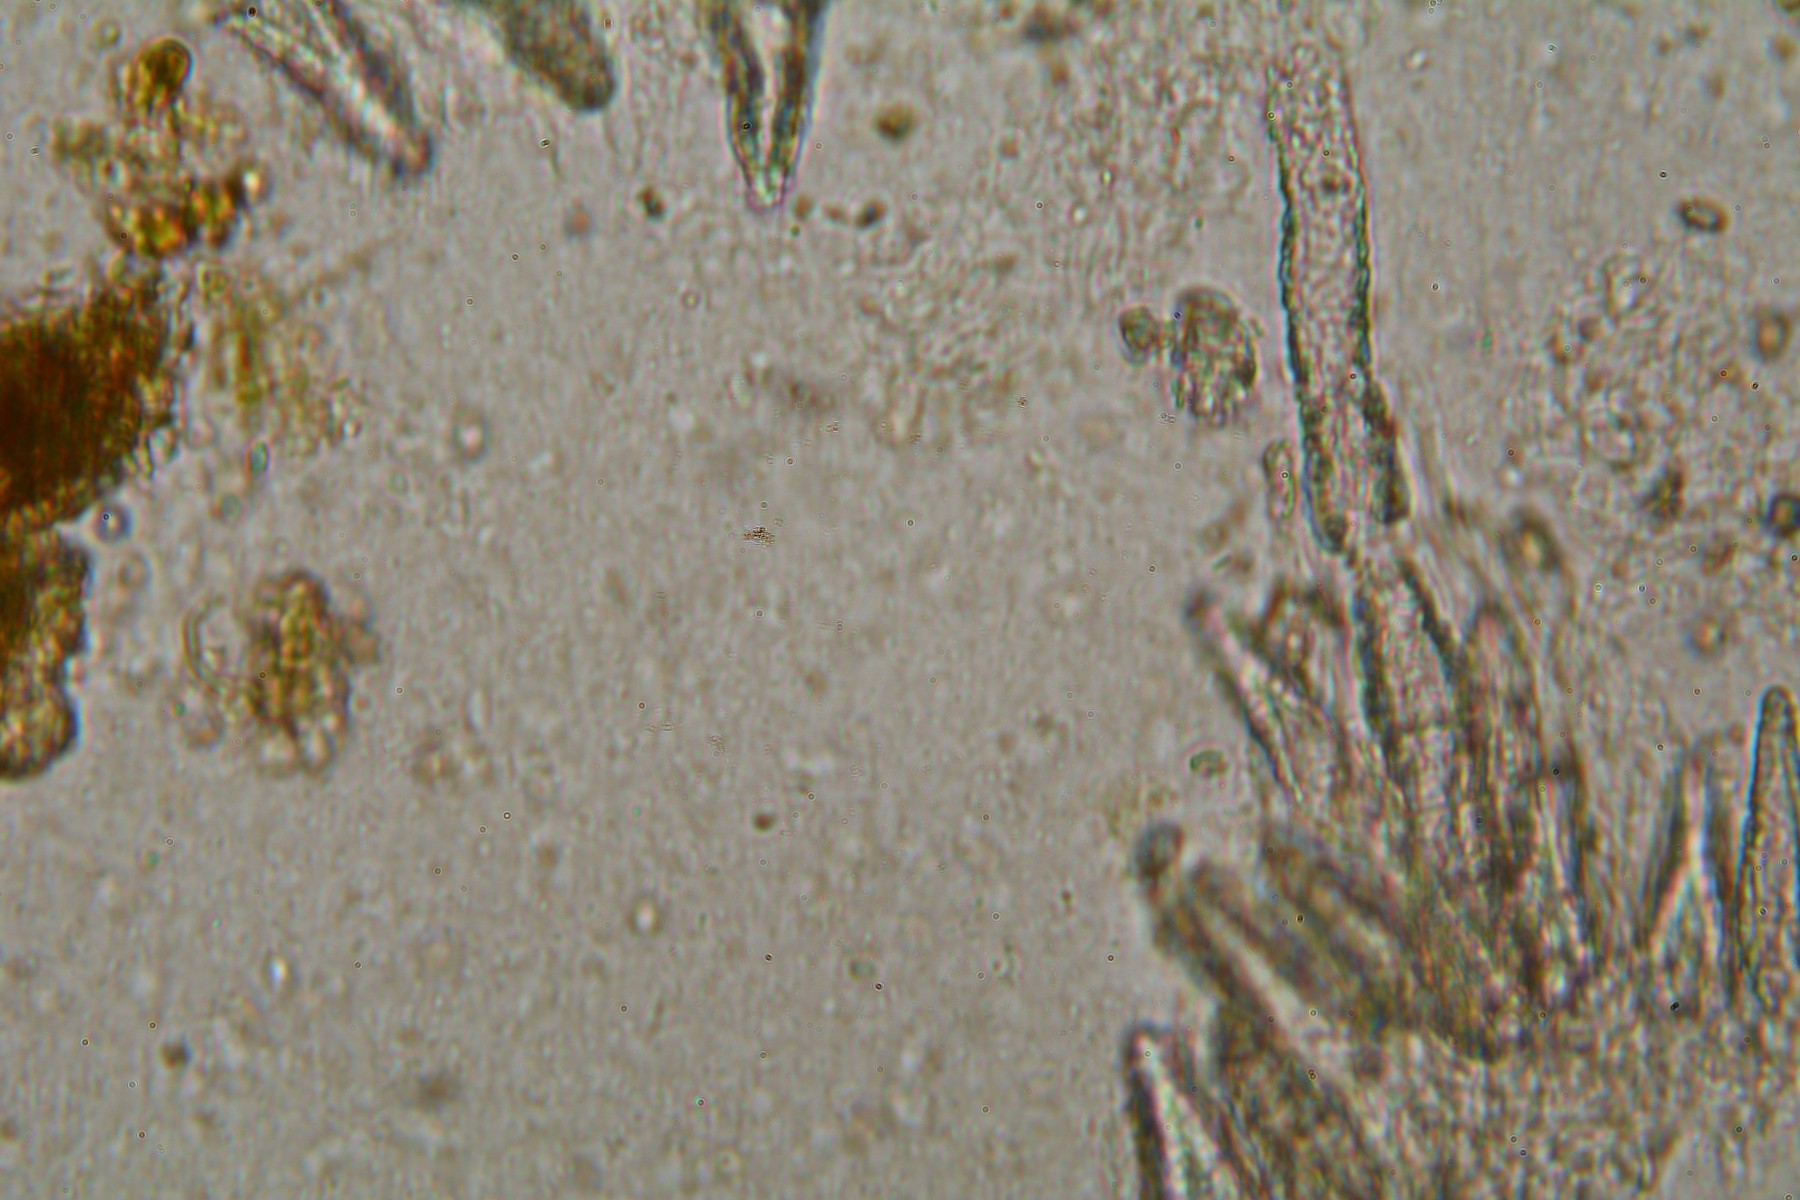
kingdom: Fungi
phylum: Basidiomycota
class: Agaricomycetes
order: Polyporales
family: Meruliaceae
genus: Scopuloides
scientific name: Scopuloides rimosa
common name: dughinde
